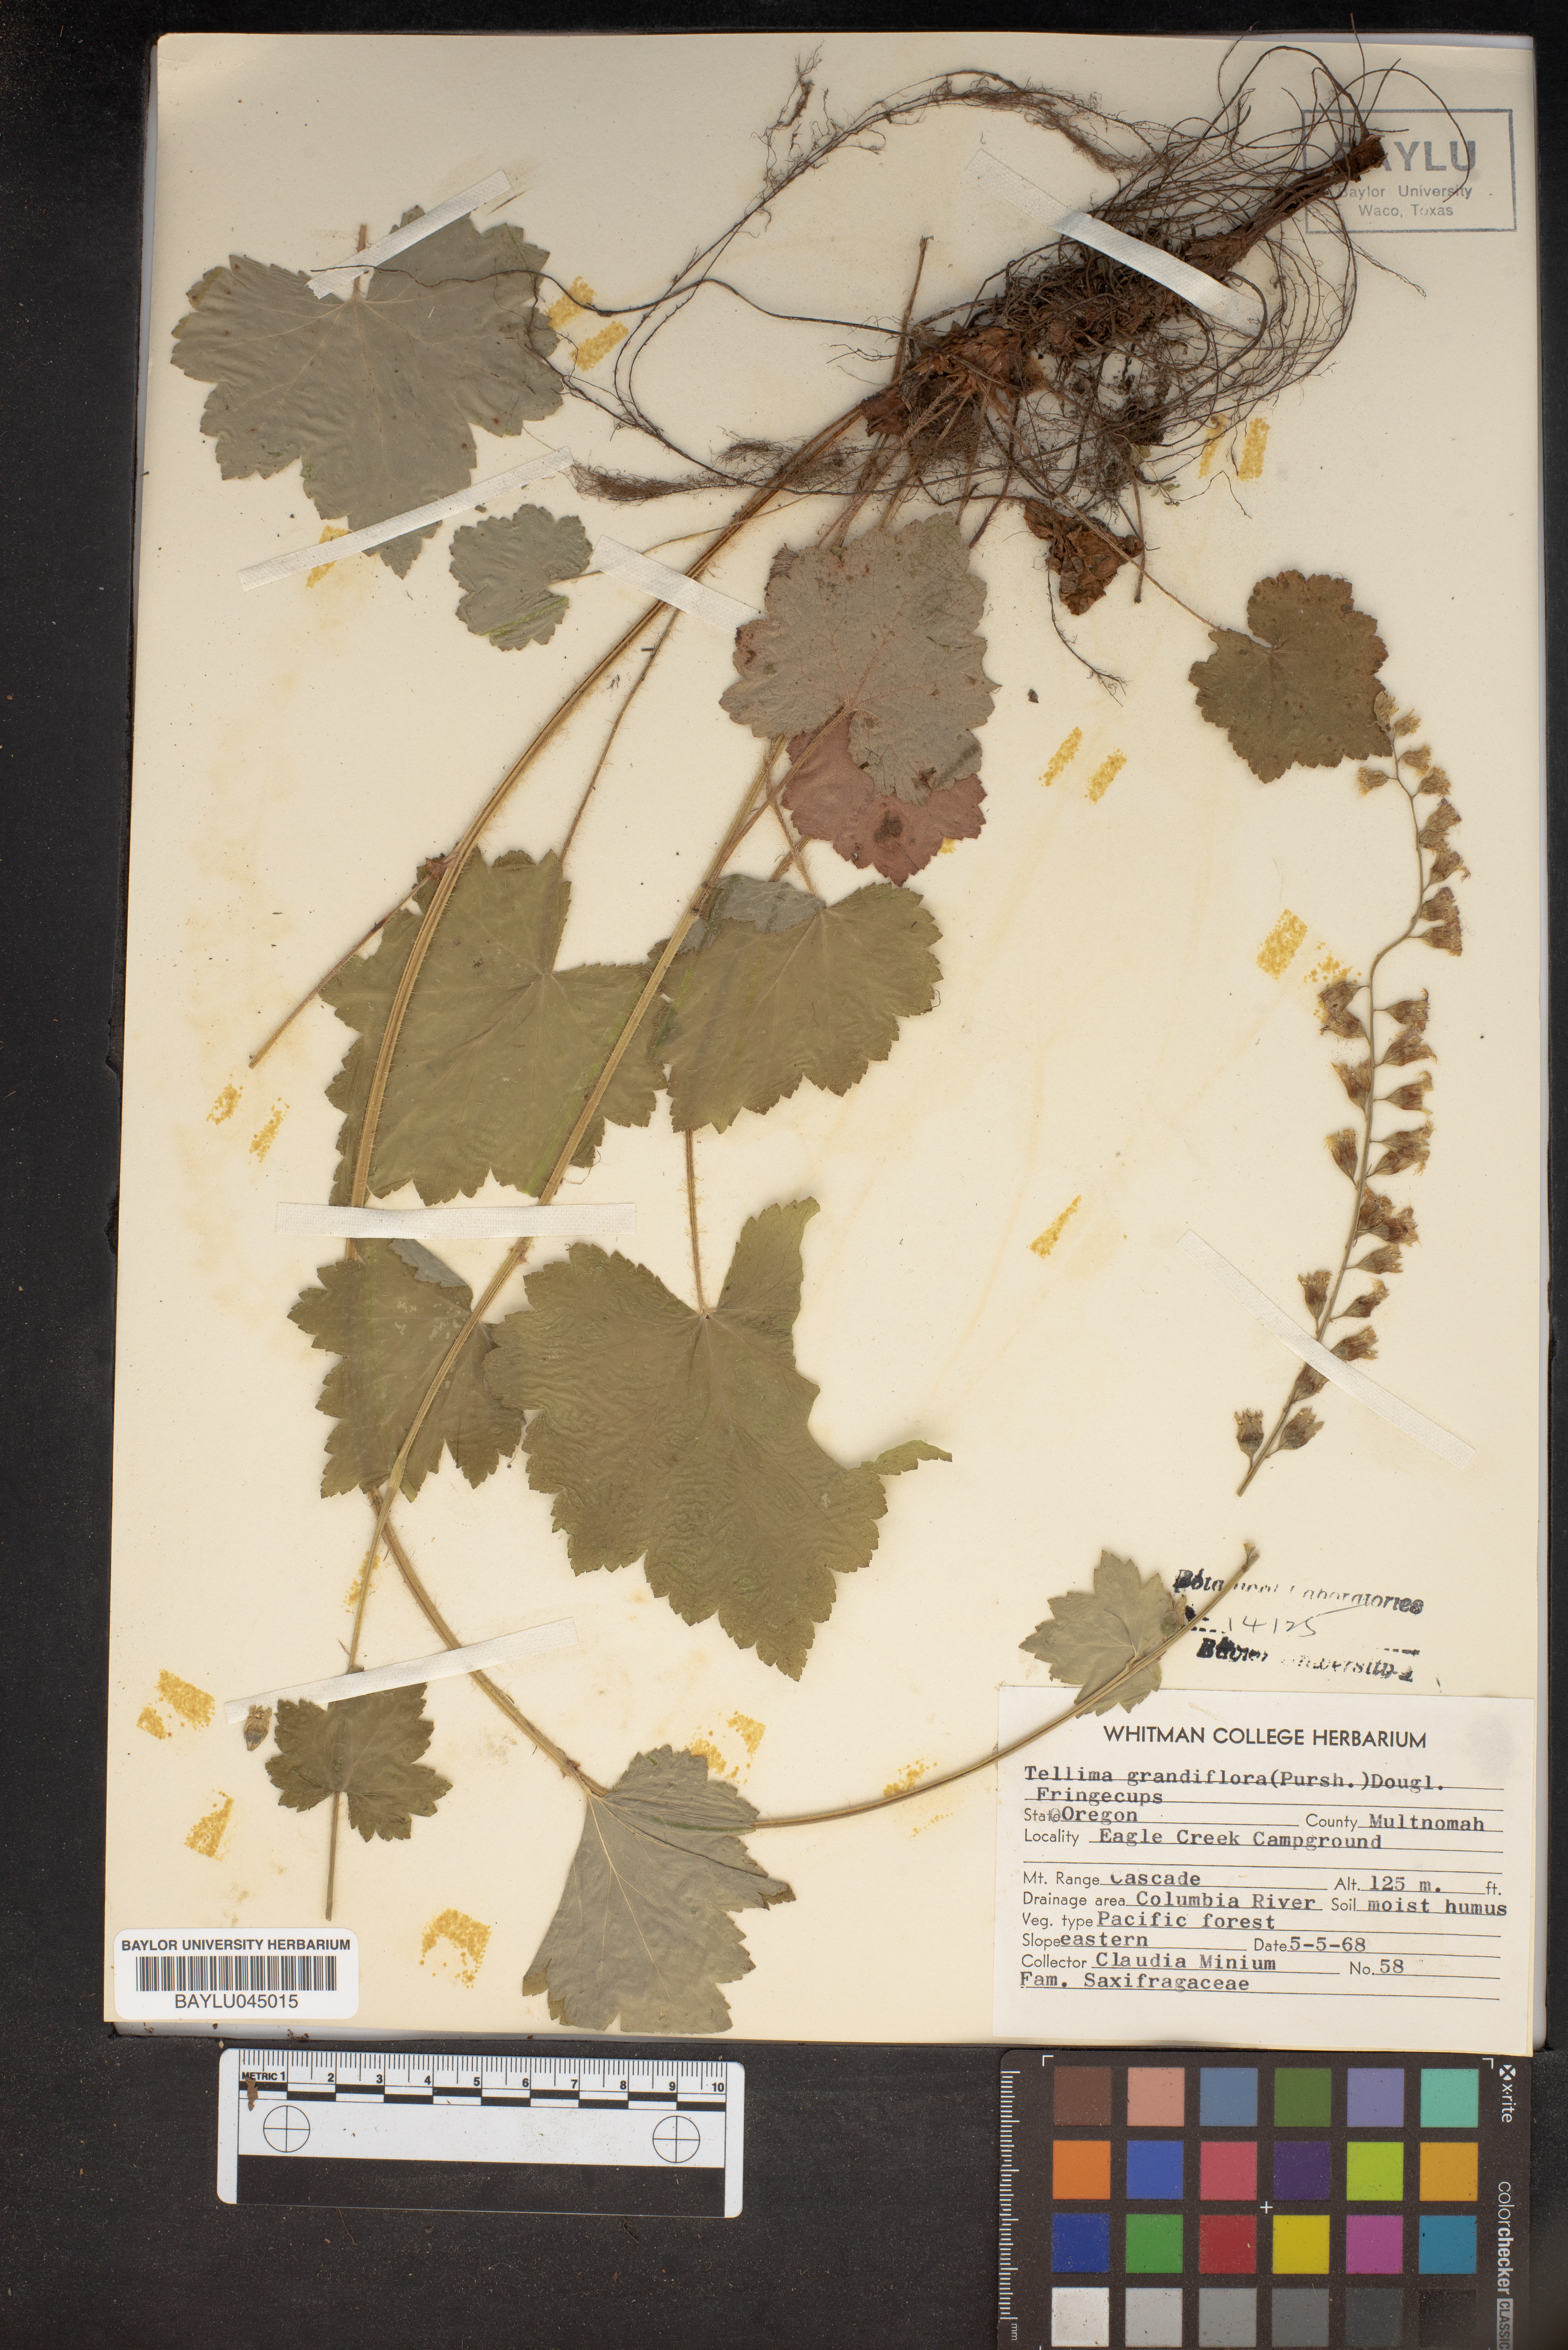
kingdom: Plantae
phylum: Tracheophyta
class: Magnoliopsida
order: Saxifragales
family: Saxifragaceae
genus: Tellima
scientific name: Tellima grandiflora
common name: Fringecups
